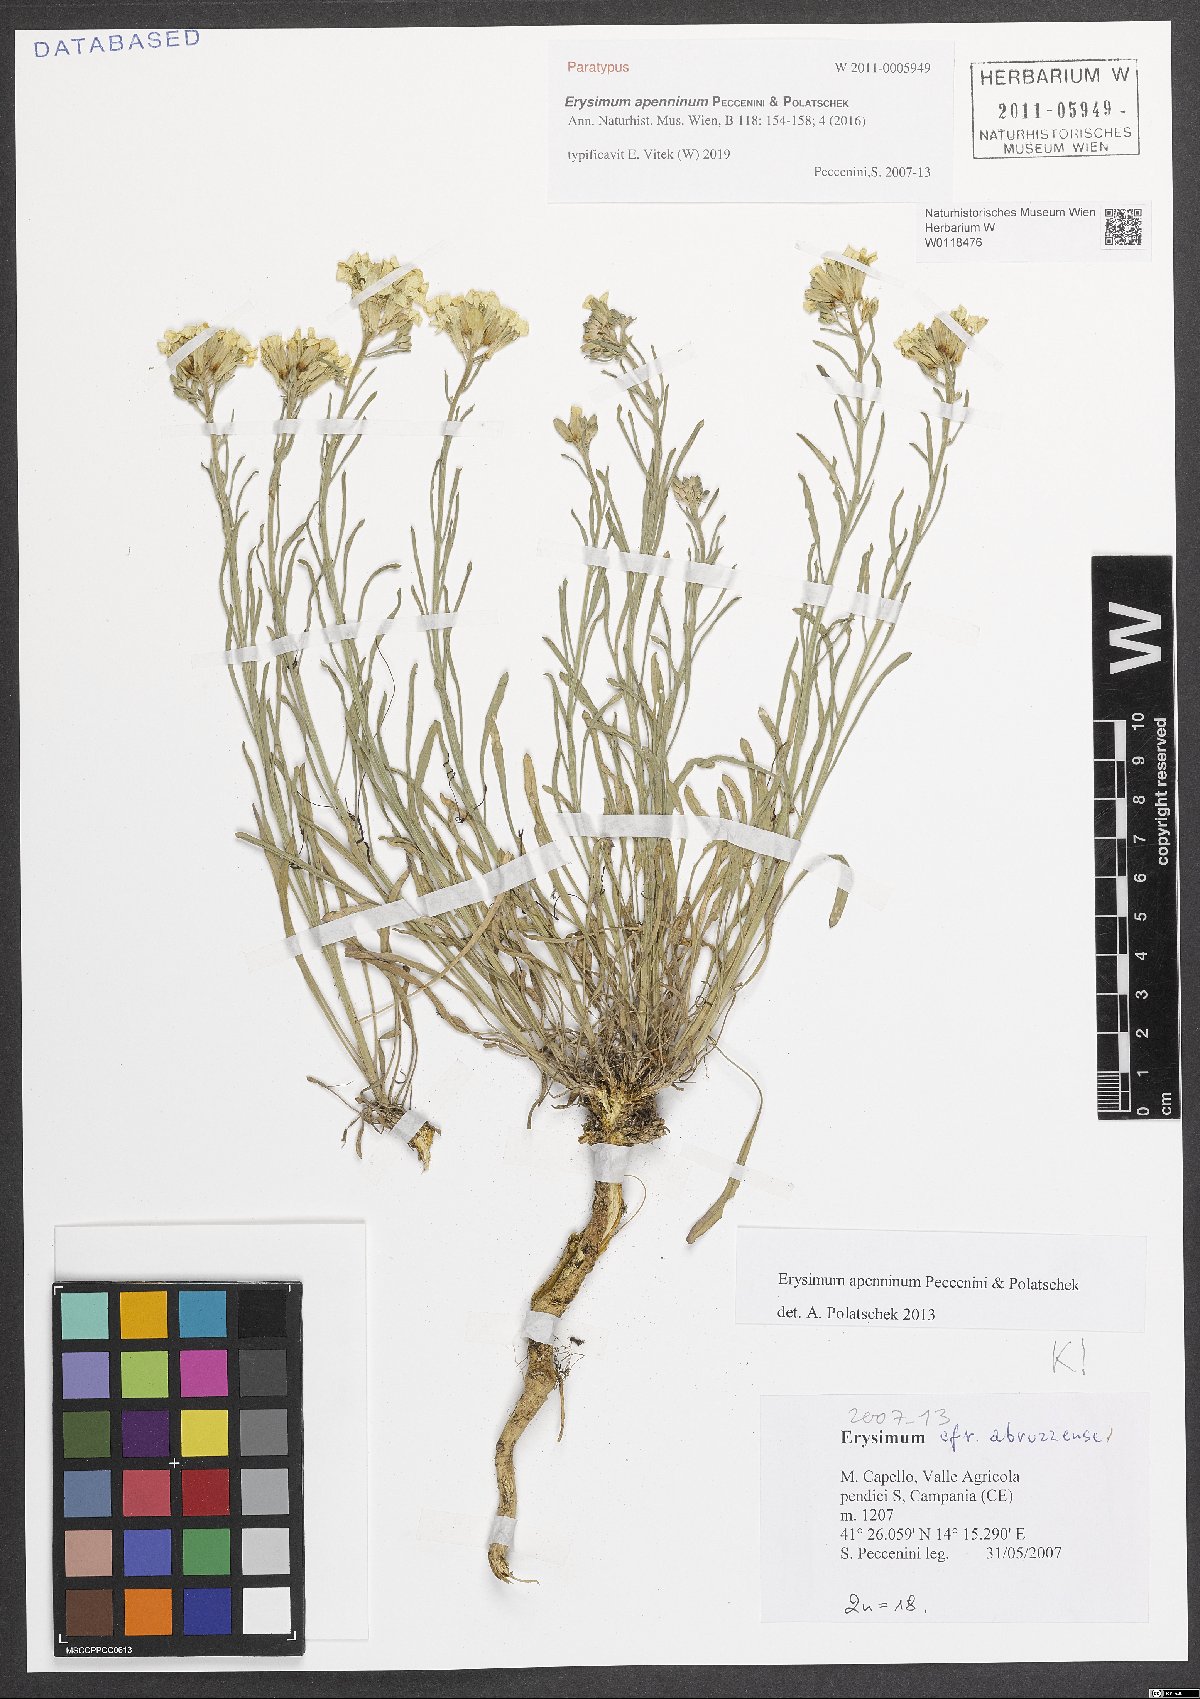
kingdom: Plantae
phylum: Tracheophyta
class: Magnoliopsida
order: Brassicales
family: Brassicaceae
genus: Erysimum
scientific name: Erysimum apenninum
